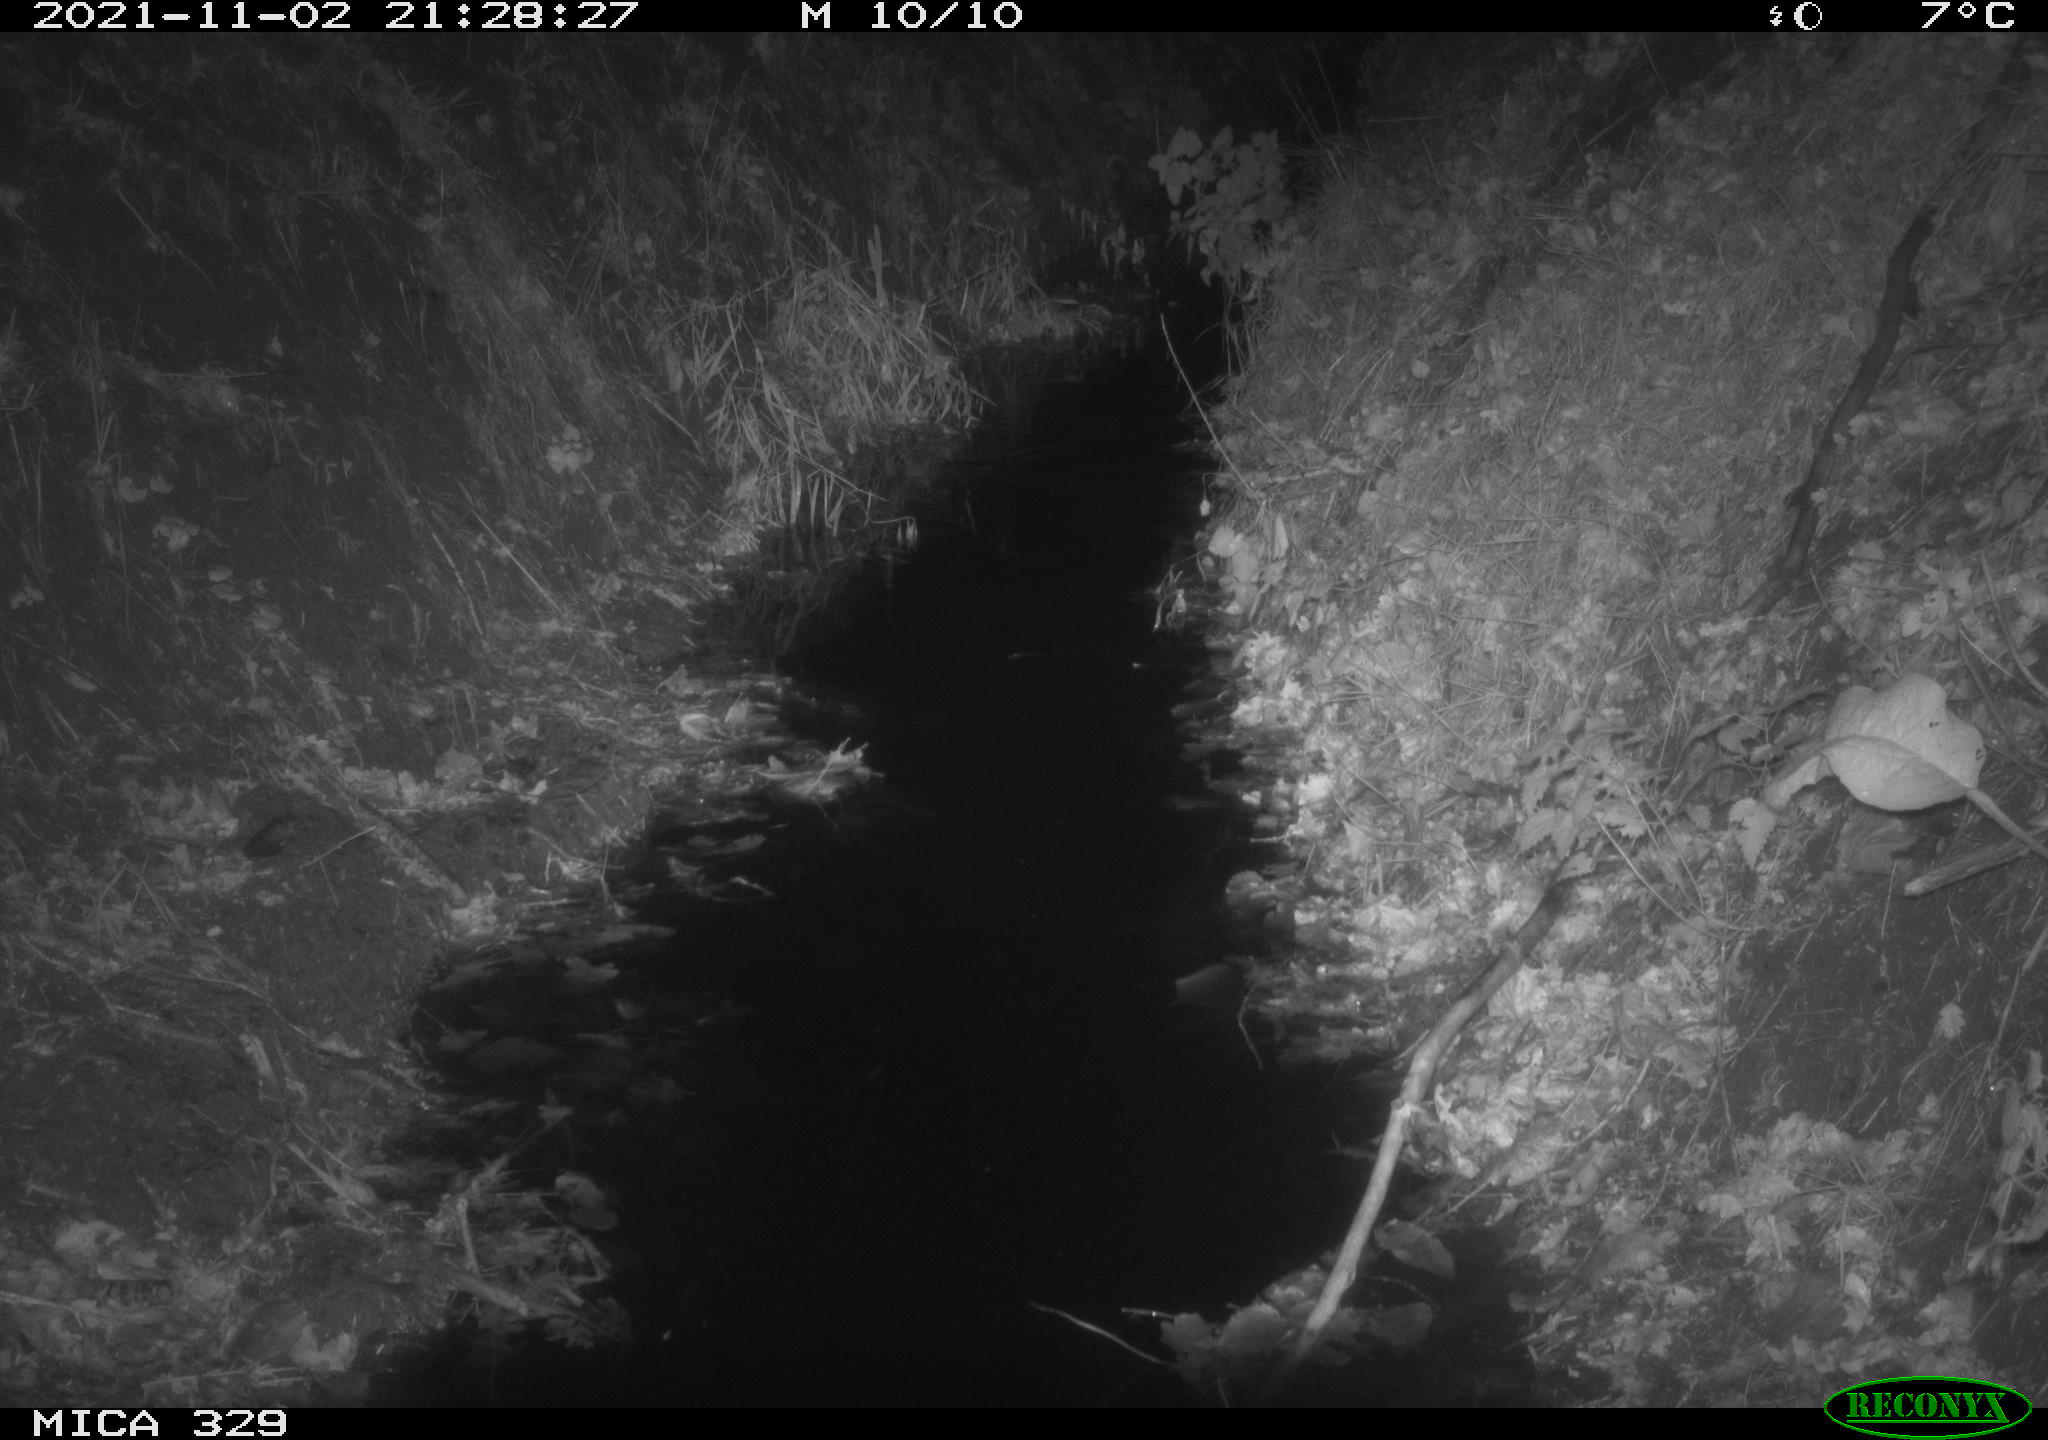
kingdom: Animalia
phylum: Chordata
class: Mammalia
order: Rodentia
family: Muridae
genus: Rattus
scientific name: Rattus norvegicus
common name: Brown rat
